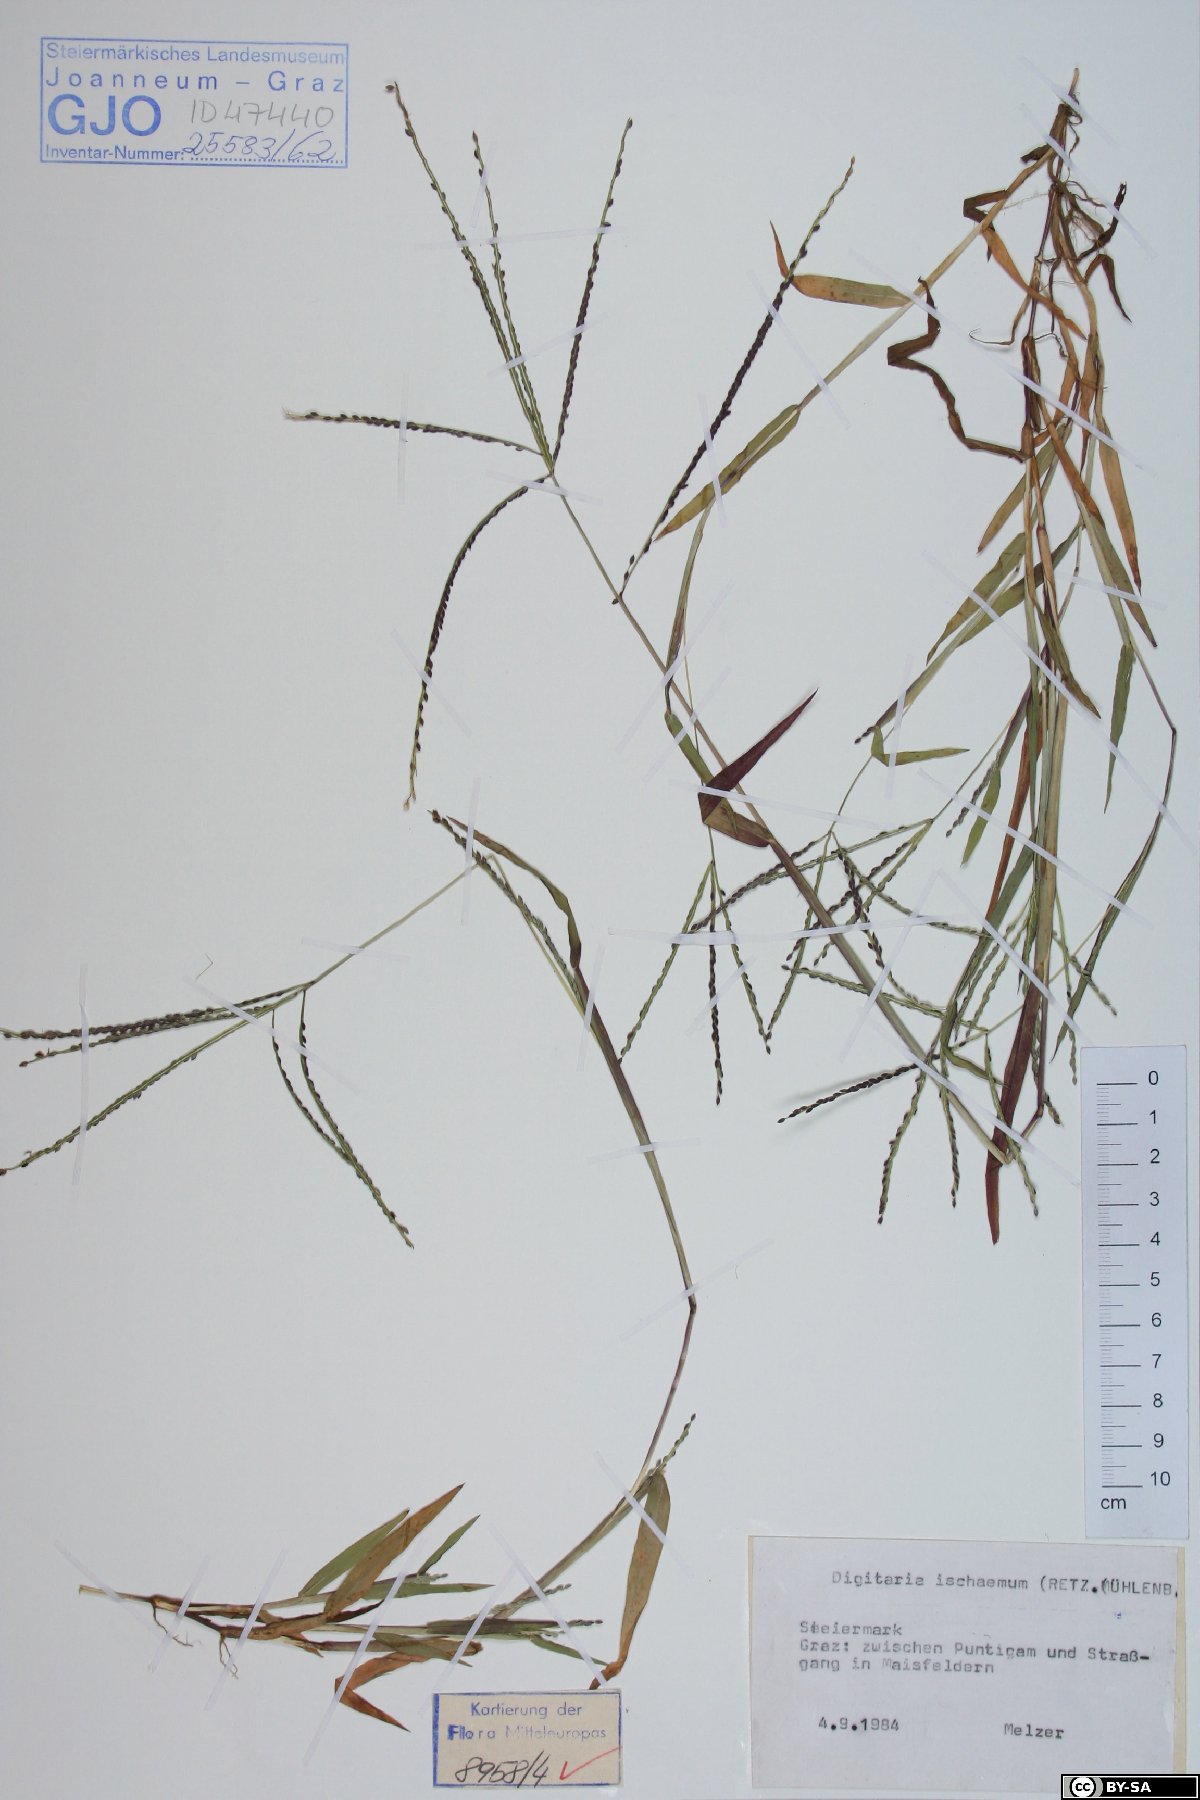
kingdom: Plantae
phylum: Tracheophyta
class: Liliopsida
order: Poales
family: Poaceae
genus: Digitaria
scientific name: Digitaria ischaemum
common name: Smooth crabgrass
